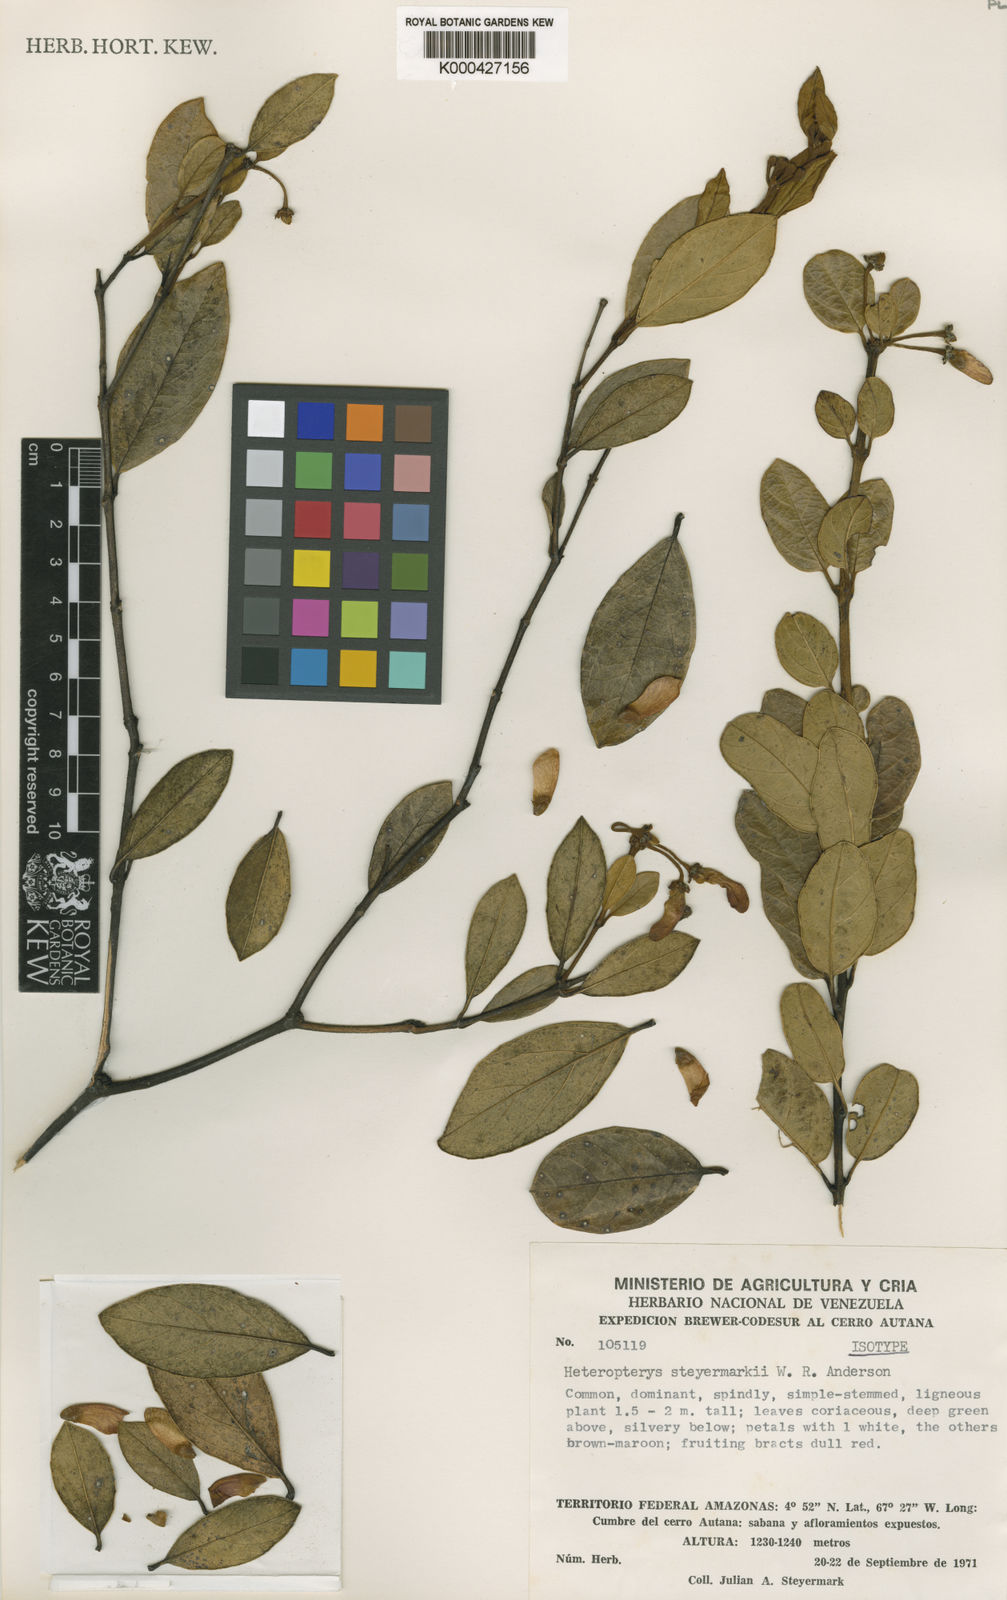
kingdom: Plantae
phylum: Tracheophyta
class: Magnoliopsida
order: Malpighiales
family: Malpighiaceae
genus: Heteropterys
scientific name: Heteropterys steyermarkii
